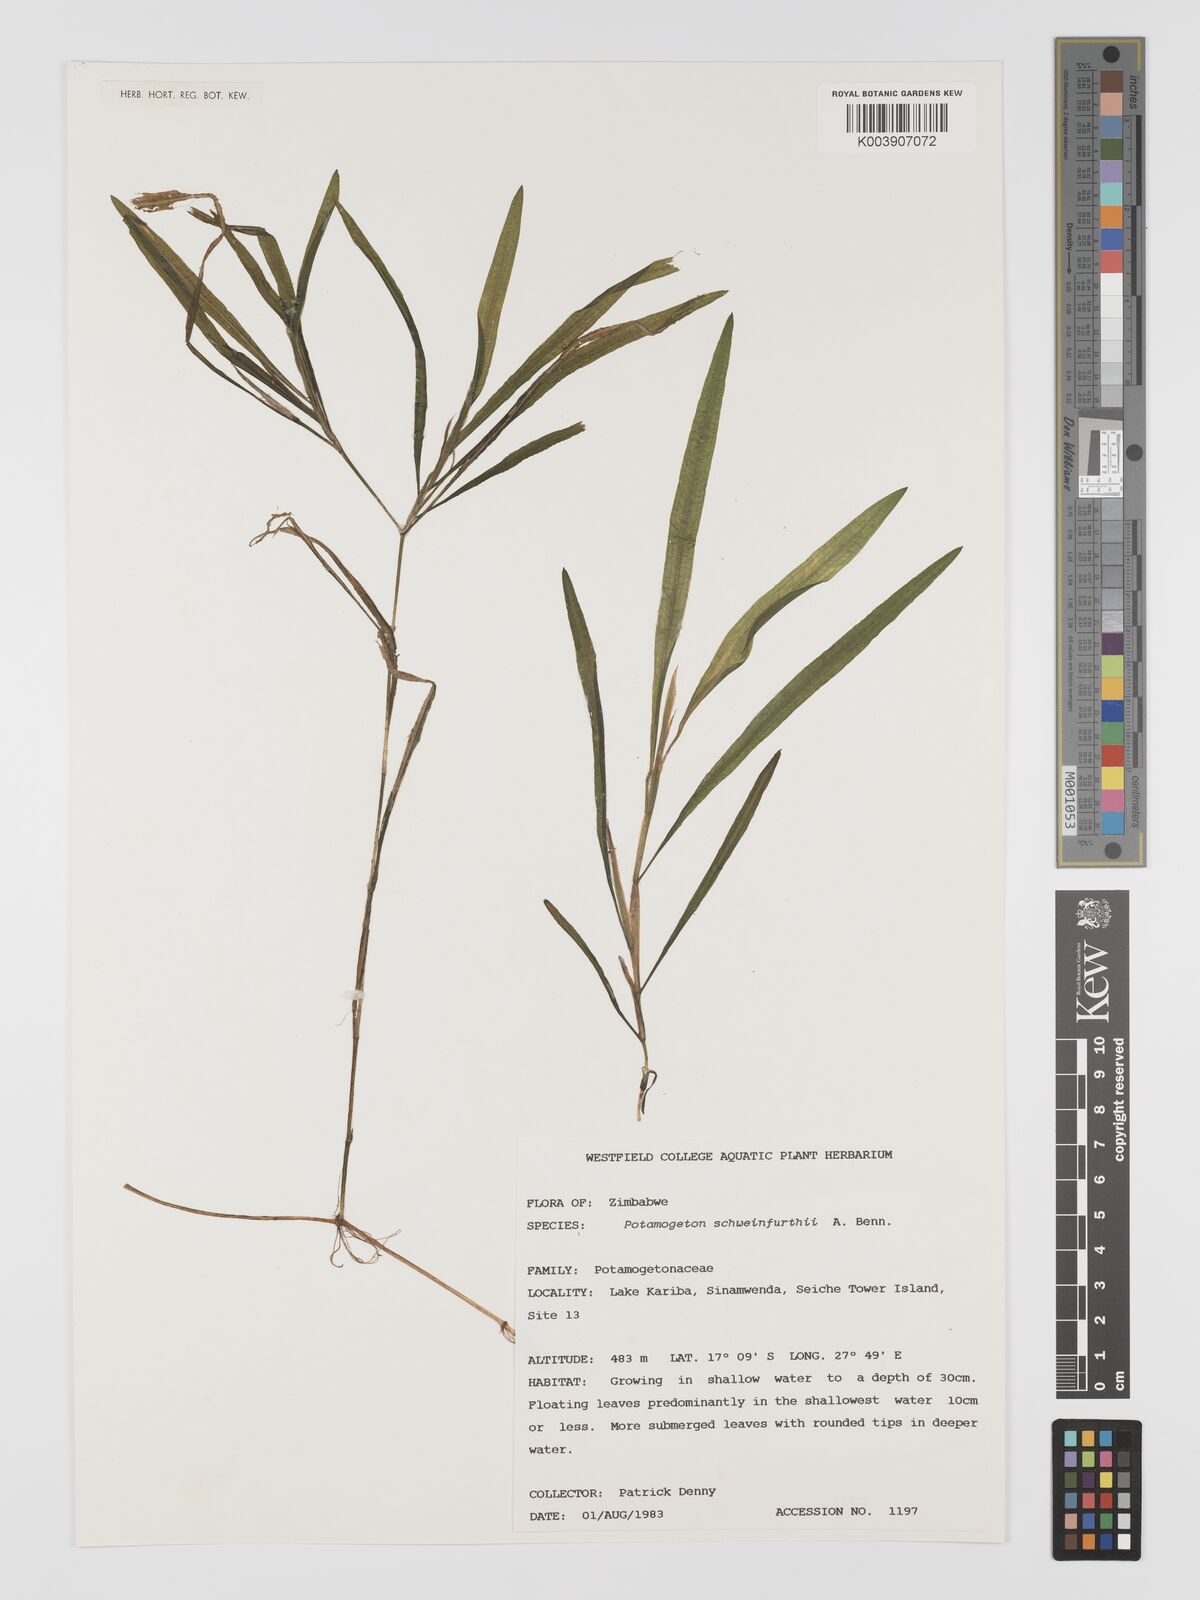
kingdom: Plantae
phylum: Tracheophyta
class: Liliopsida
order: Alismatales
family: Potamogetonaceae
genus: Potamogeton
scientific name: Potamogeton schweinfurthii
